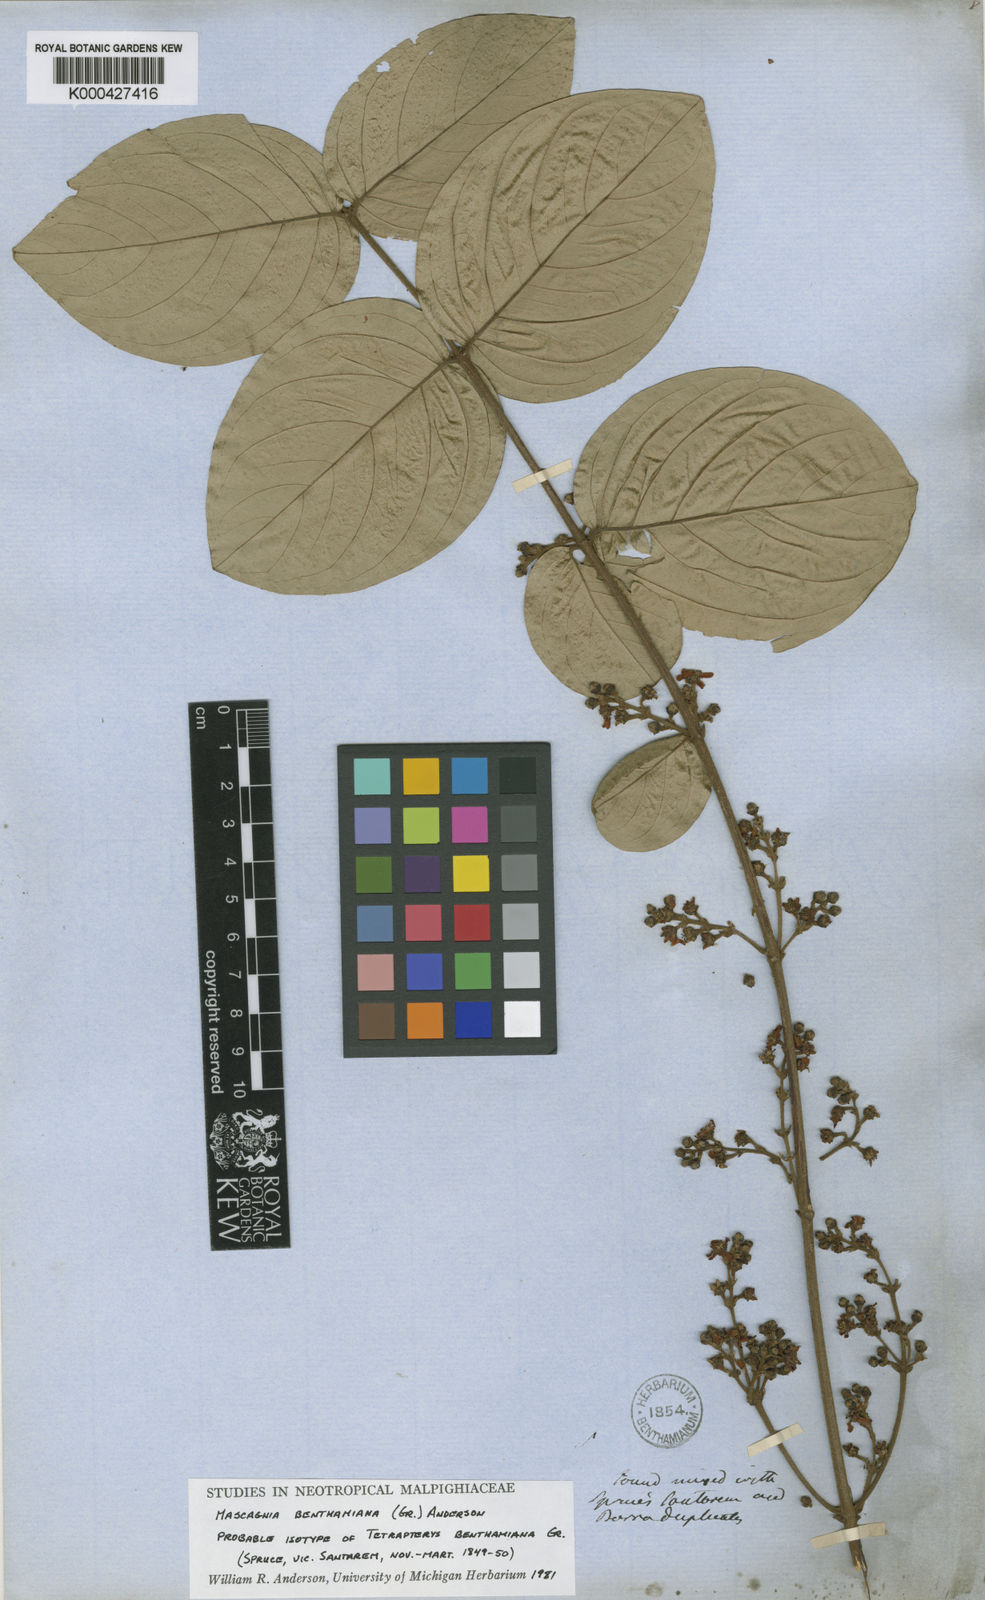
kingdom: Plantae
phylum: Tracheophyta
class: Magnoliopsida
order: Malpighiales
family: Malpighiaceae
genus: Niedenzuella
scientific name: Niedenzuella stannea
